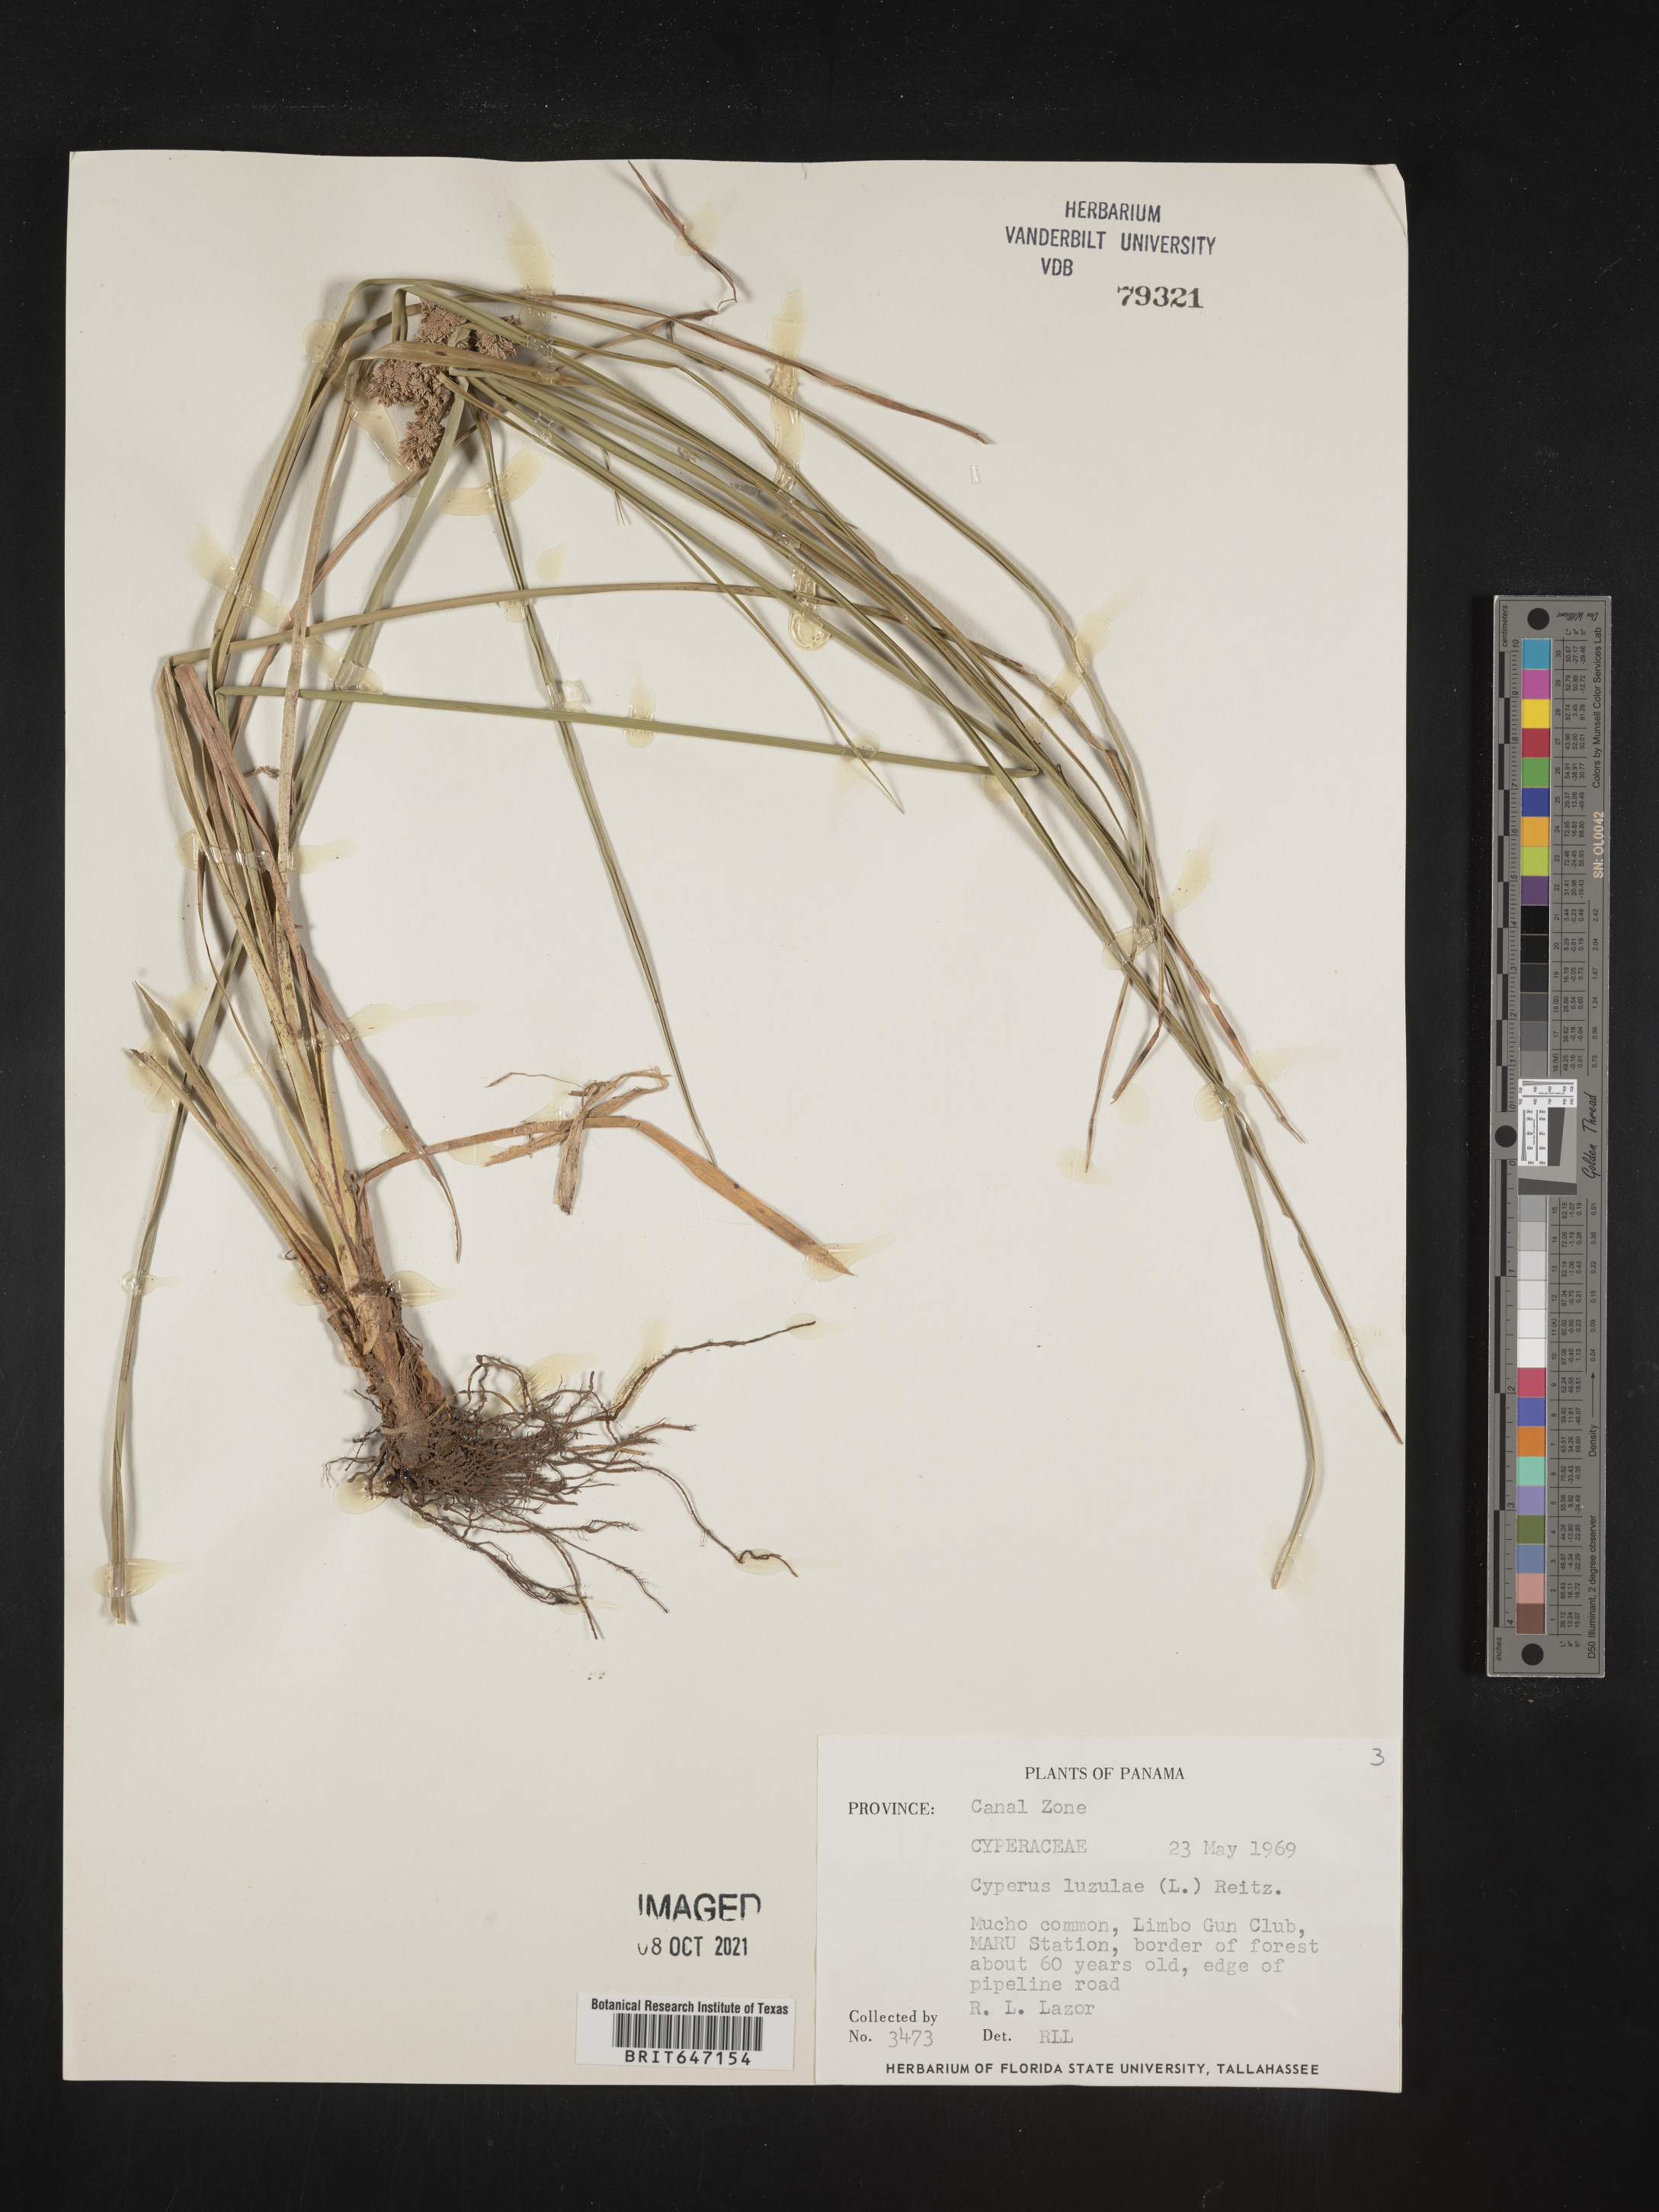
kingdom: Plantae
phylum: Tracheophyta
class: Liliopsida
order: Poales
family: Cyperaceae
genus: Cyperus
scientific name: Cyperus luzulae
